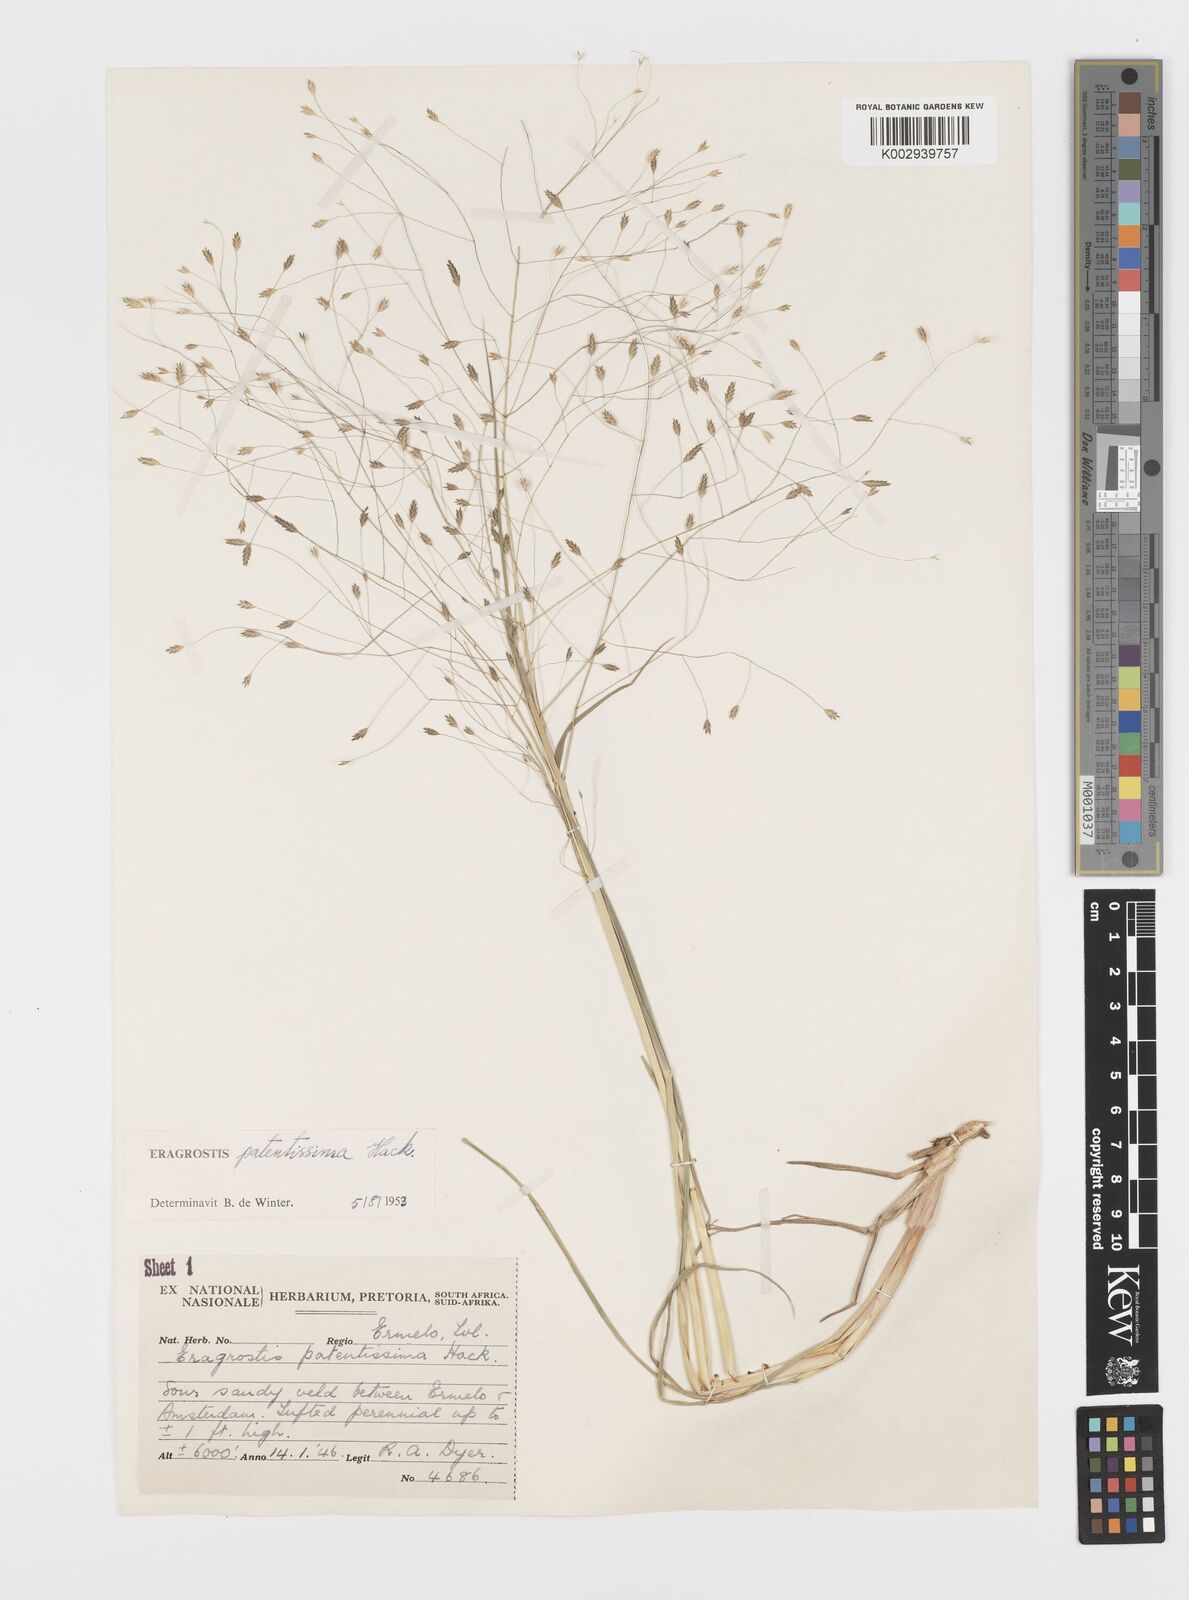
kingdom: Plantae
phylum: Tracheophyta
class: Liliopsida
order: Poales
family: Poaceae
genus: Eragrostis
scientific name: Eragrostis patentissima
